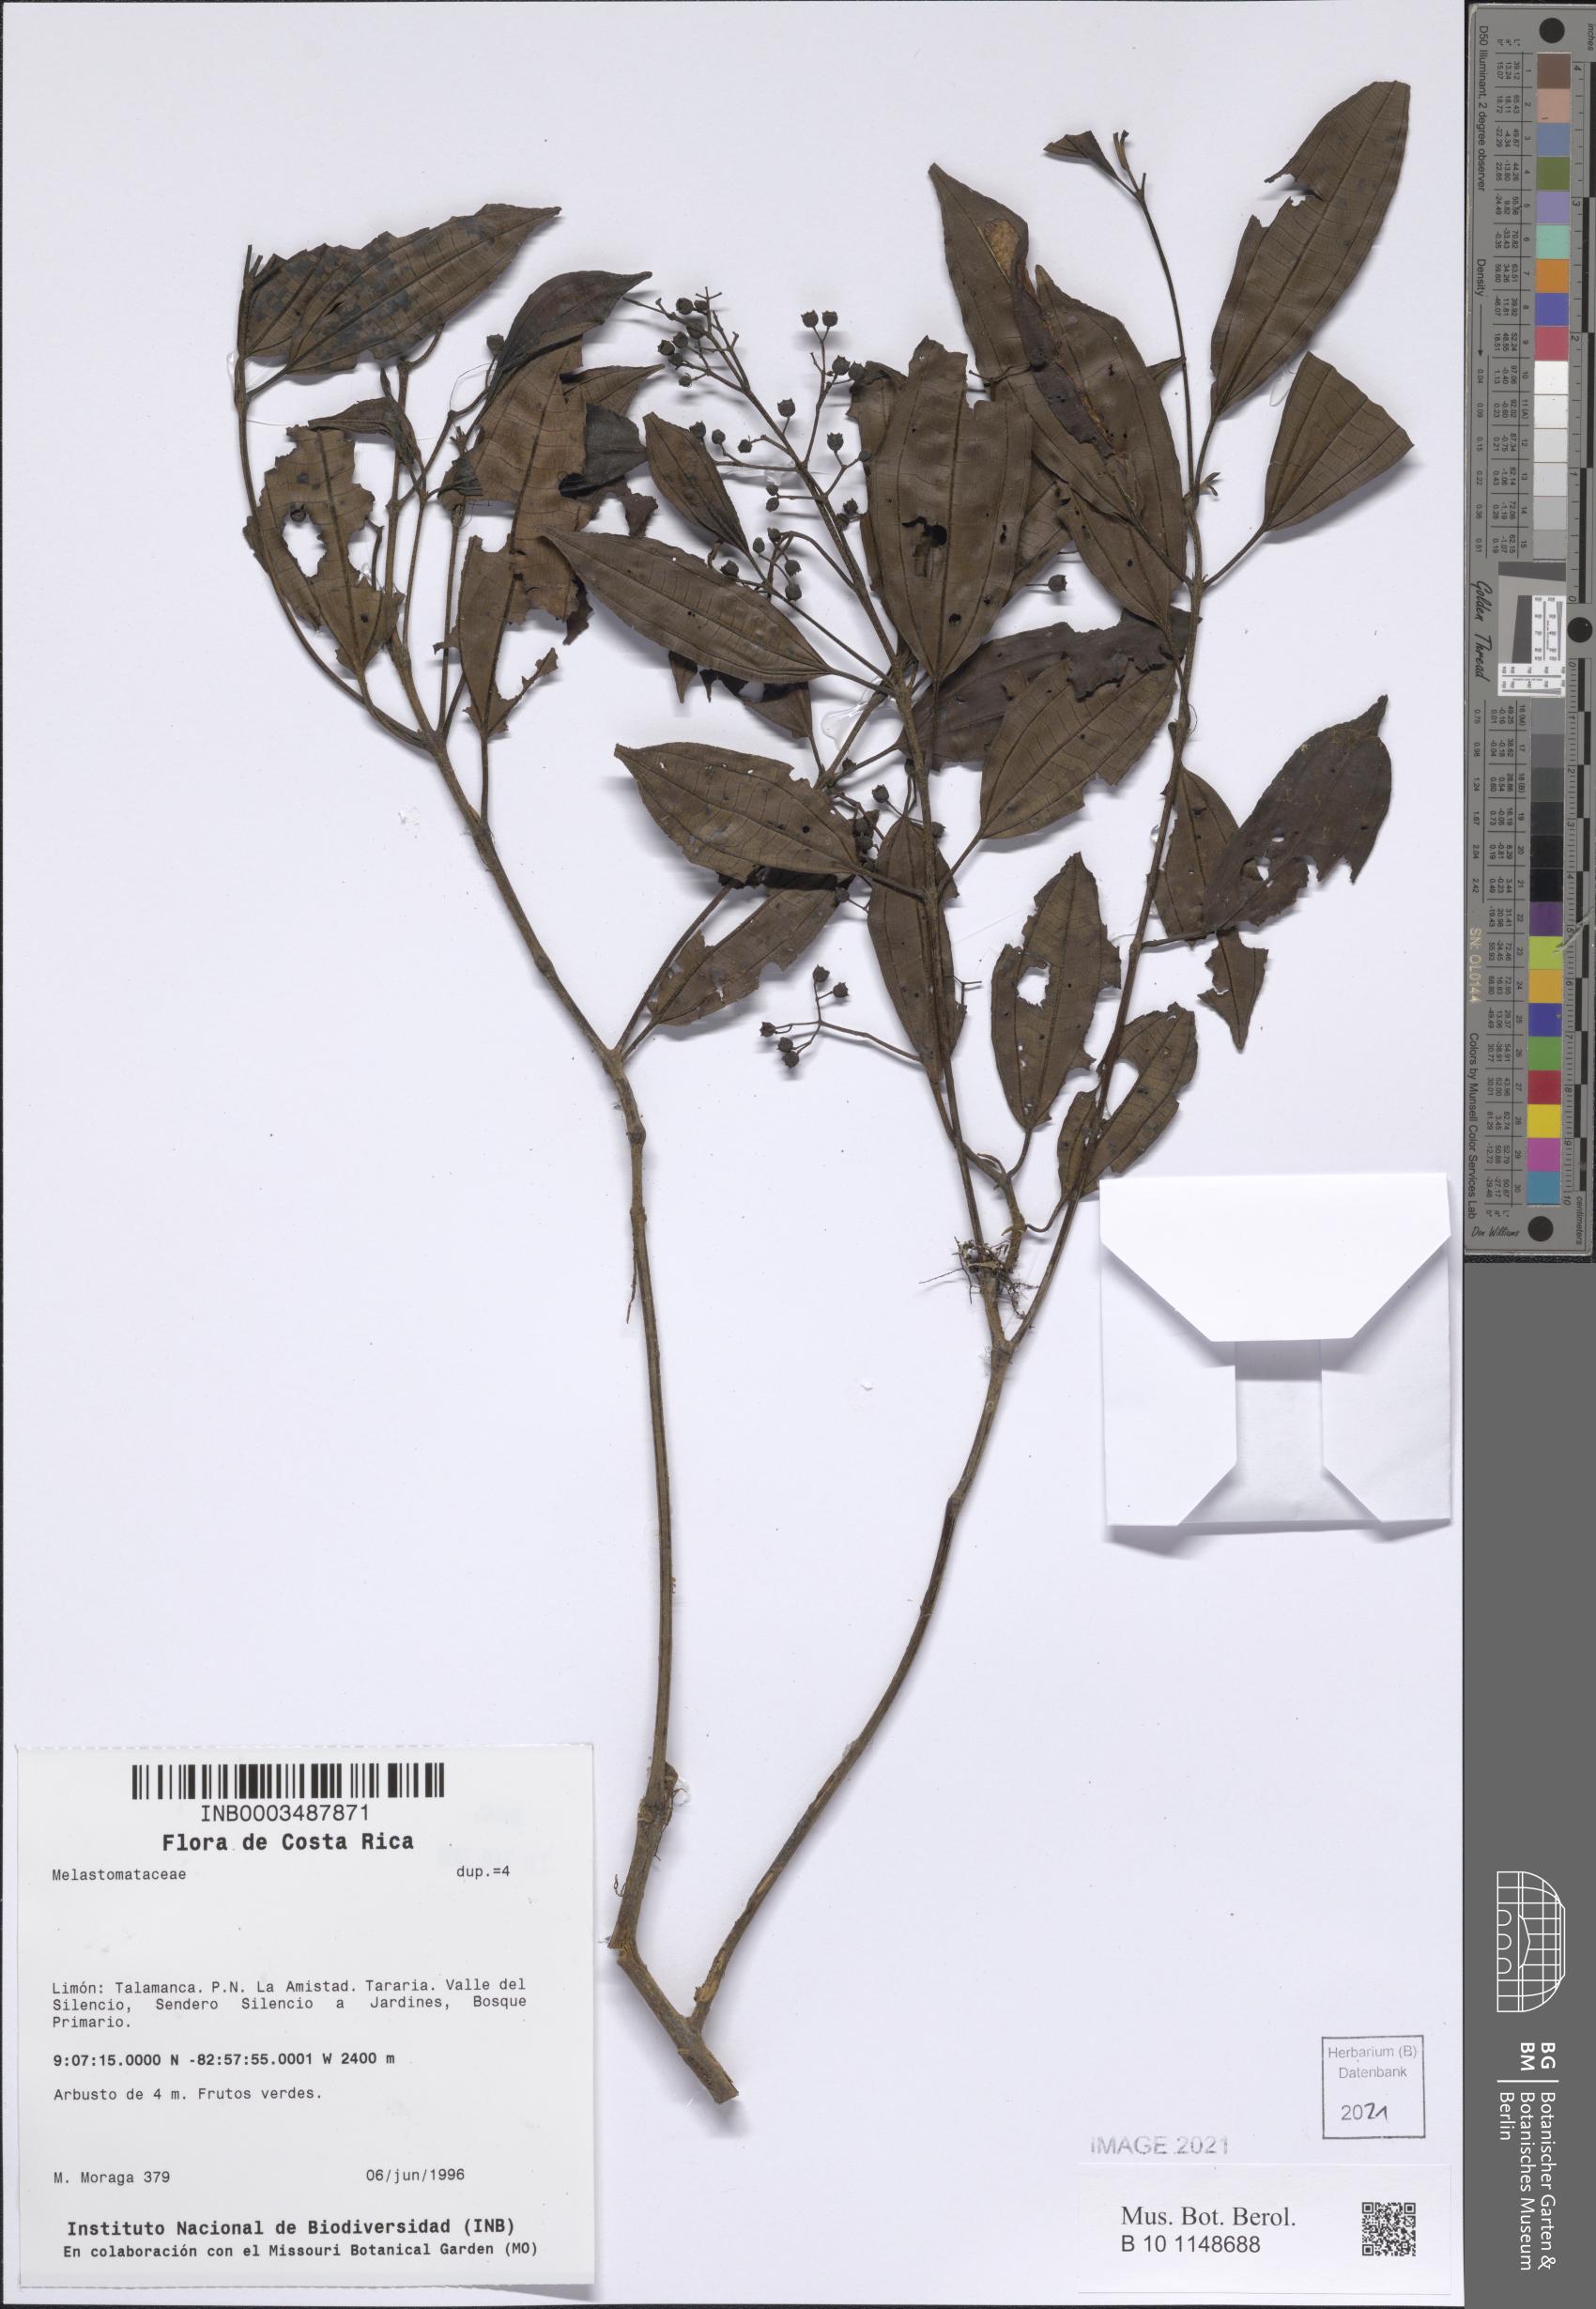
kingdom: Plantae
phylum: Tracheophyta
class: Magnoliopsida
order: Myrtales
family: Melastomataceae
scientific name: Melastomataceae
